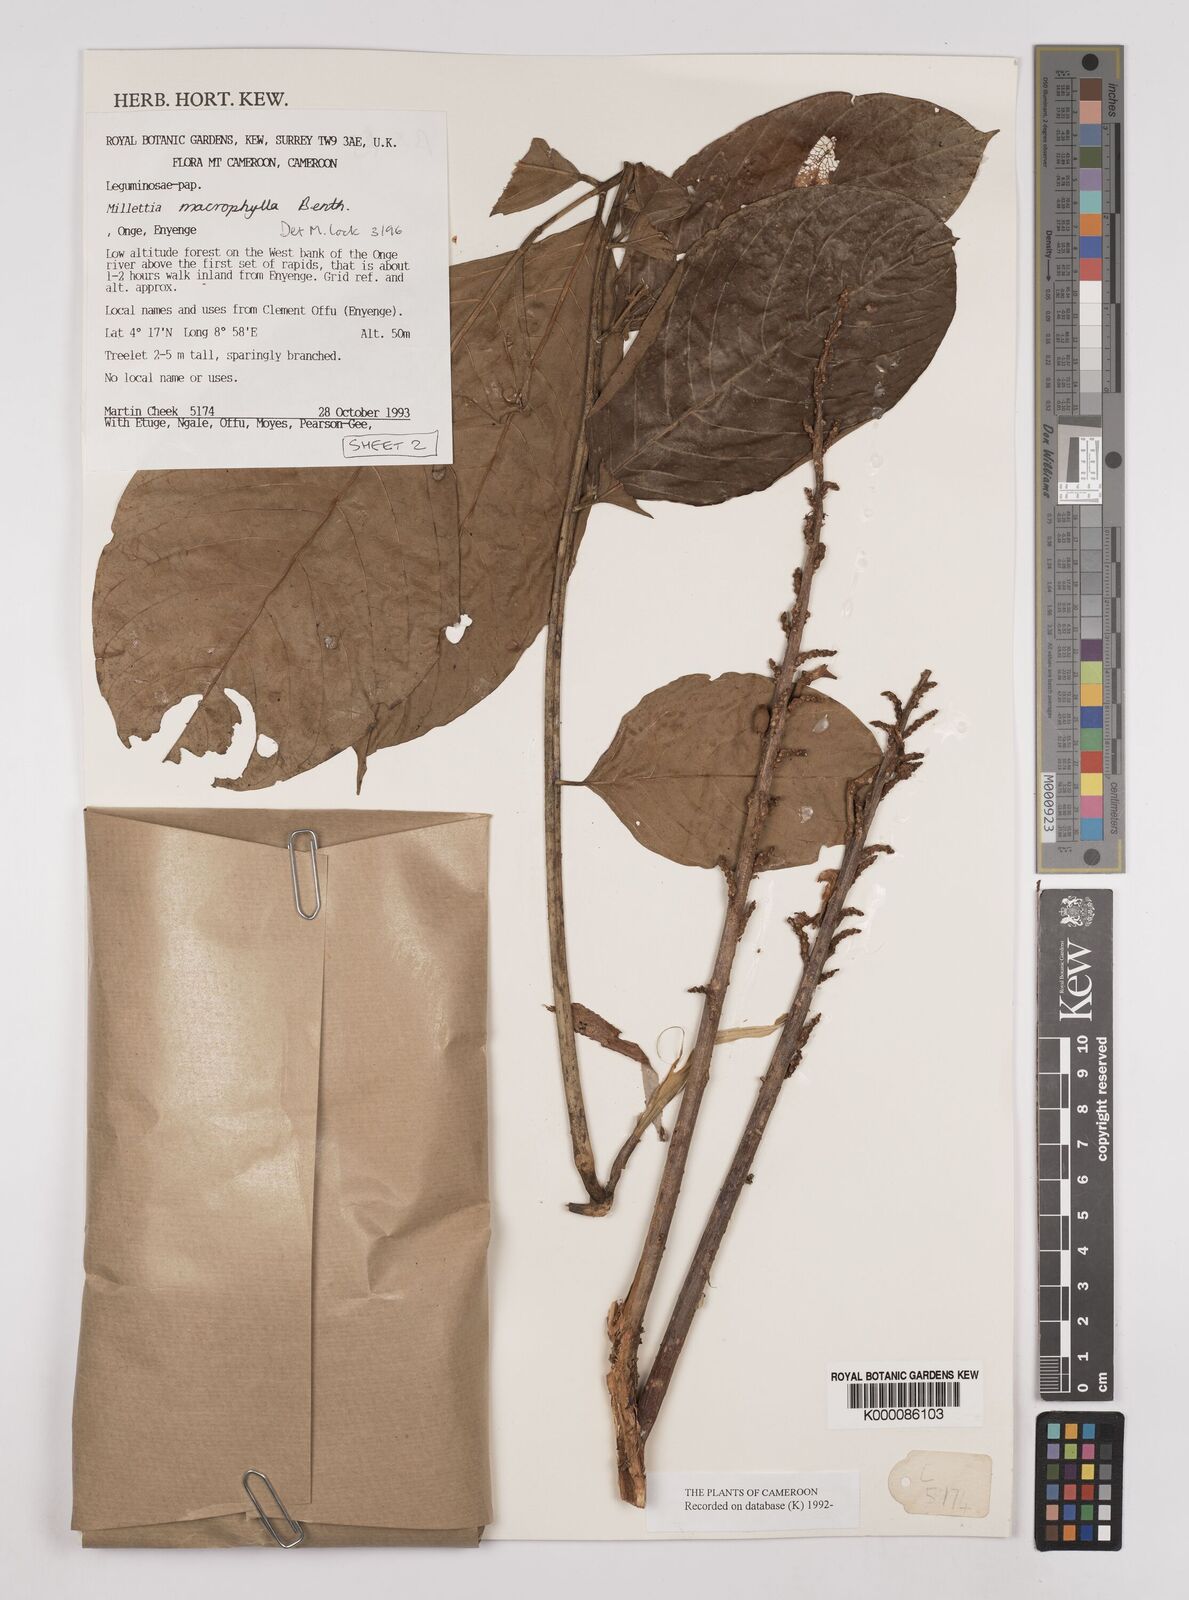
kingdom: Plantae
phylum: Tracheophyta
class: Magnoliopsida
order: Fabales
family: Fabaceae
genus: Millettia
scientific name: Millettia macrophylla
